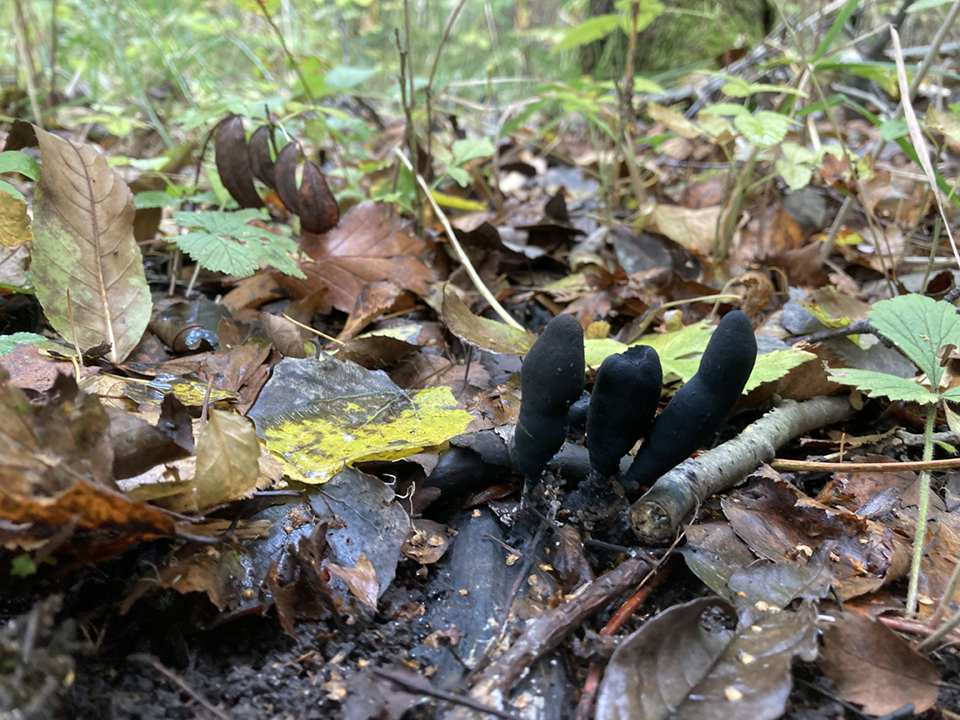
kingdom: Fungi
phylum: Ascomycota
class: Sordariomycetes
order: Xylariales
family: Xylariaceae
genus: Xylaria
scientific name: Xylaria longipes
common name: slank stødsvamp
